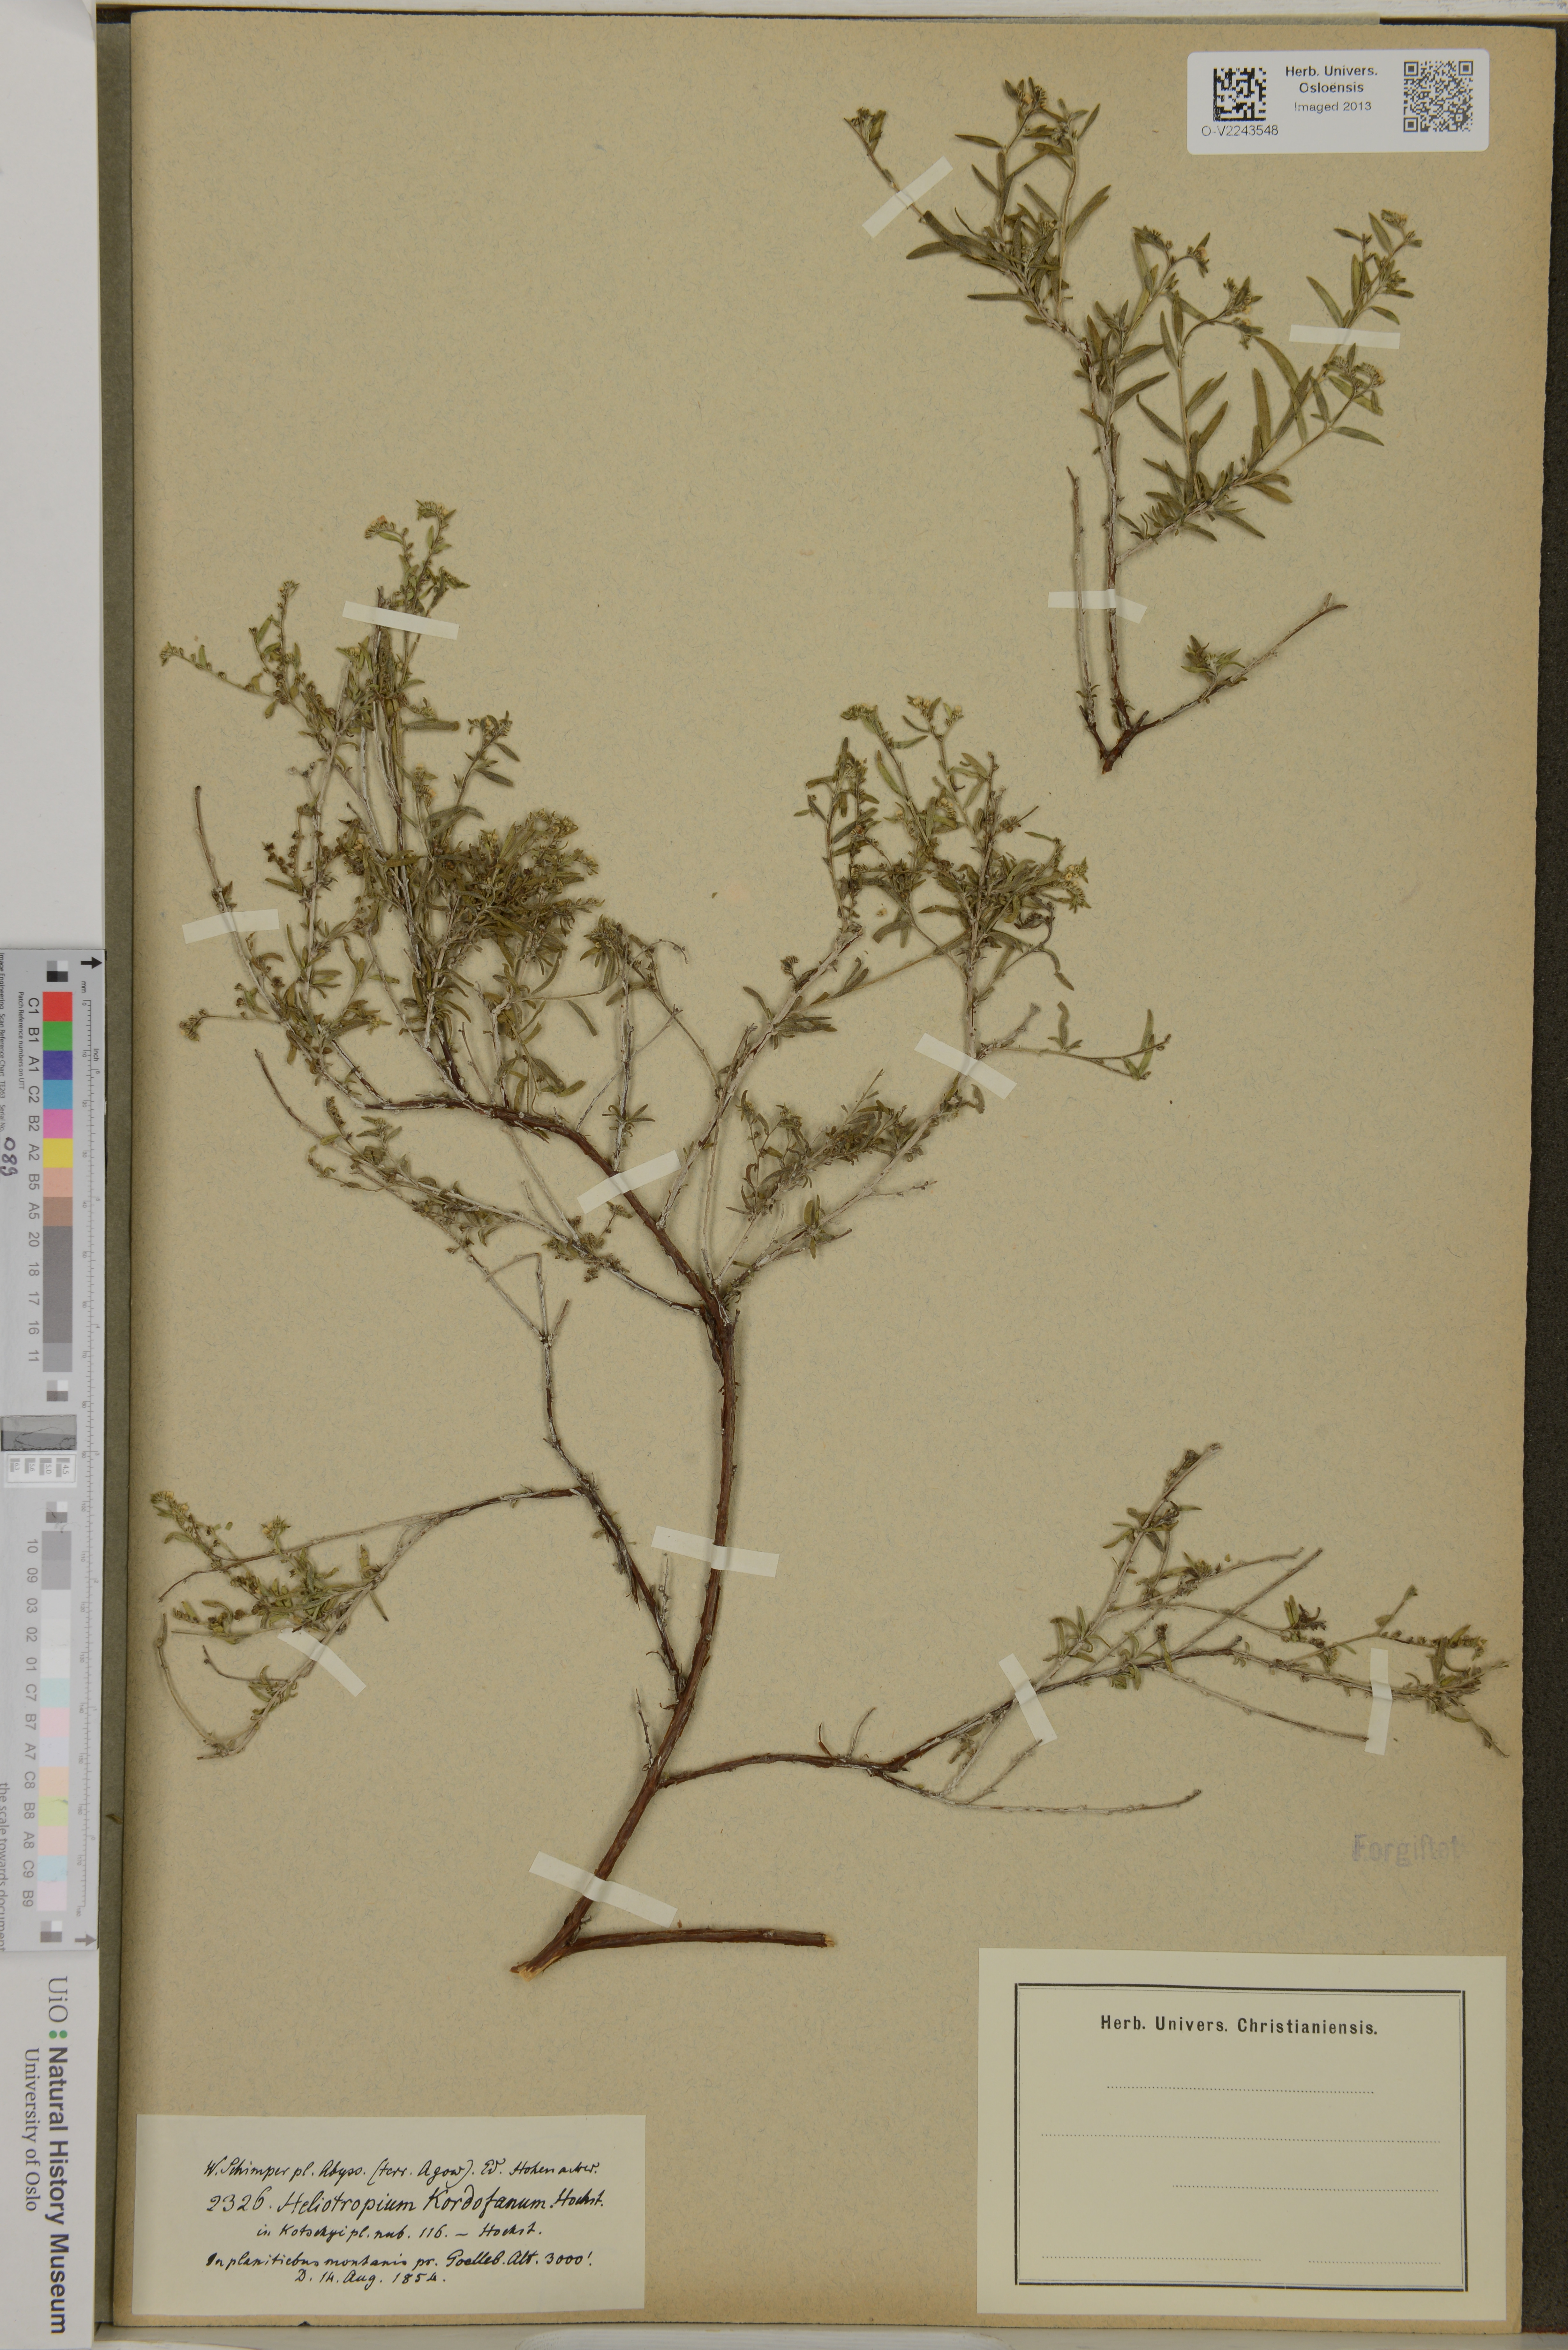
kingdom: Plantae
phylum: Tracheophyta
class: Magnoliopsida
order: Boraginales
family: Heliotropiaceae
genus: Heliotropium
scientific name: Heliotropium
